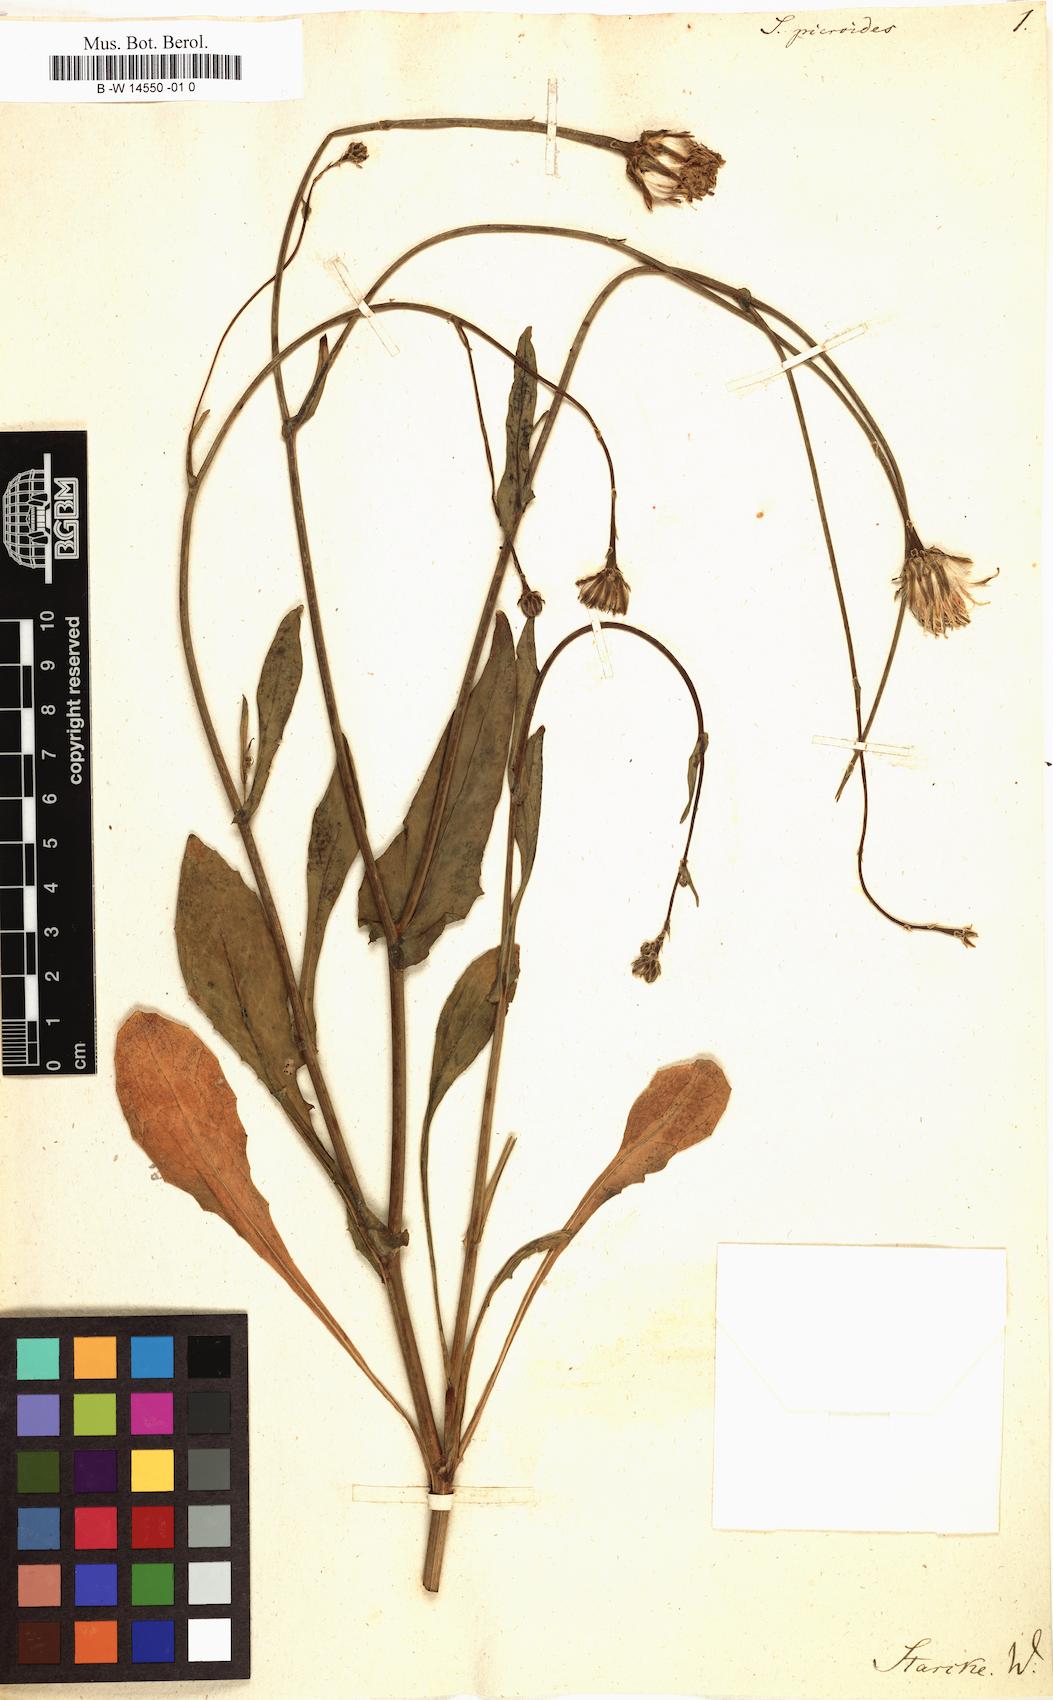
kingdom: Plantae
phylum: Tracheophyta
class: Magnoliopsida
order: Asterales
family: Asteraceae
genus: Reichardia
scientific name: Reichardia
